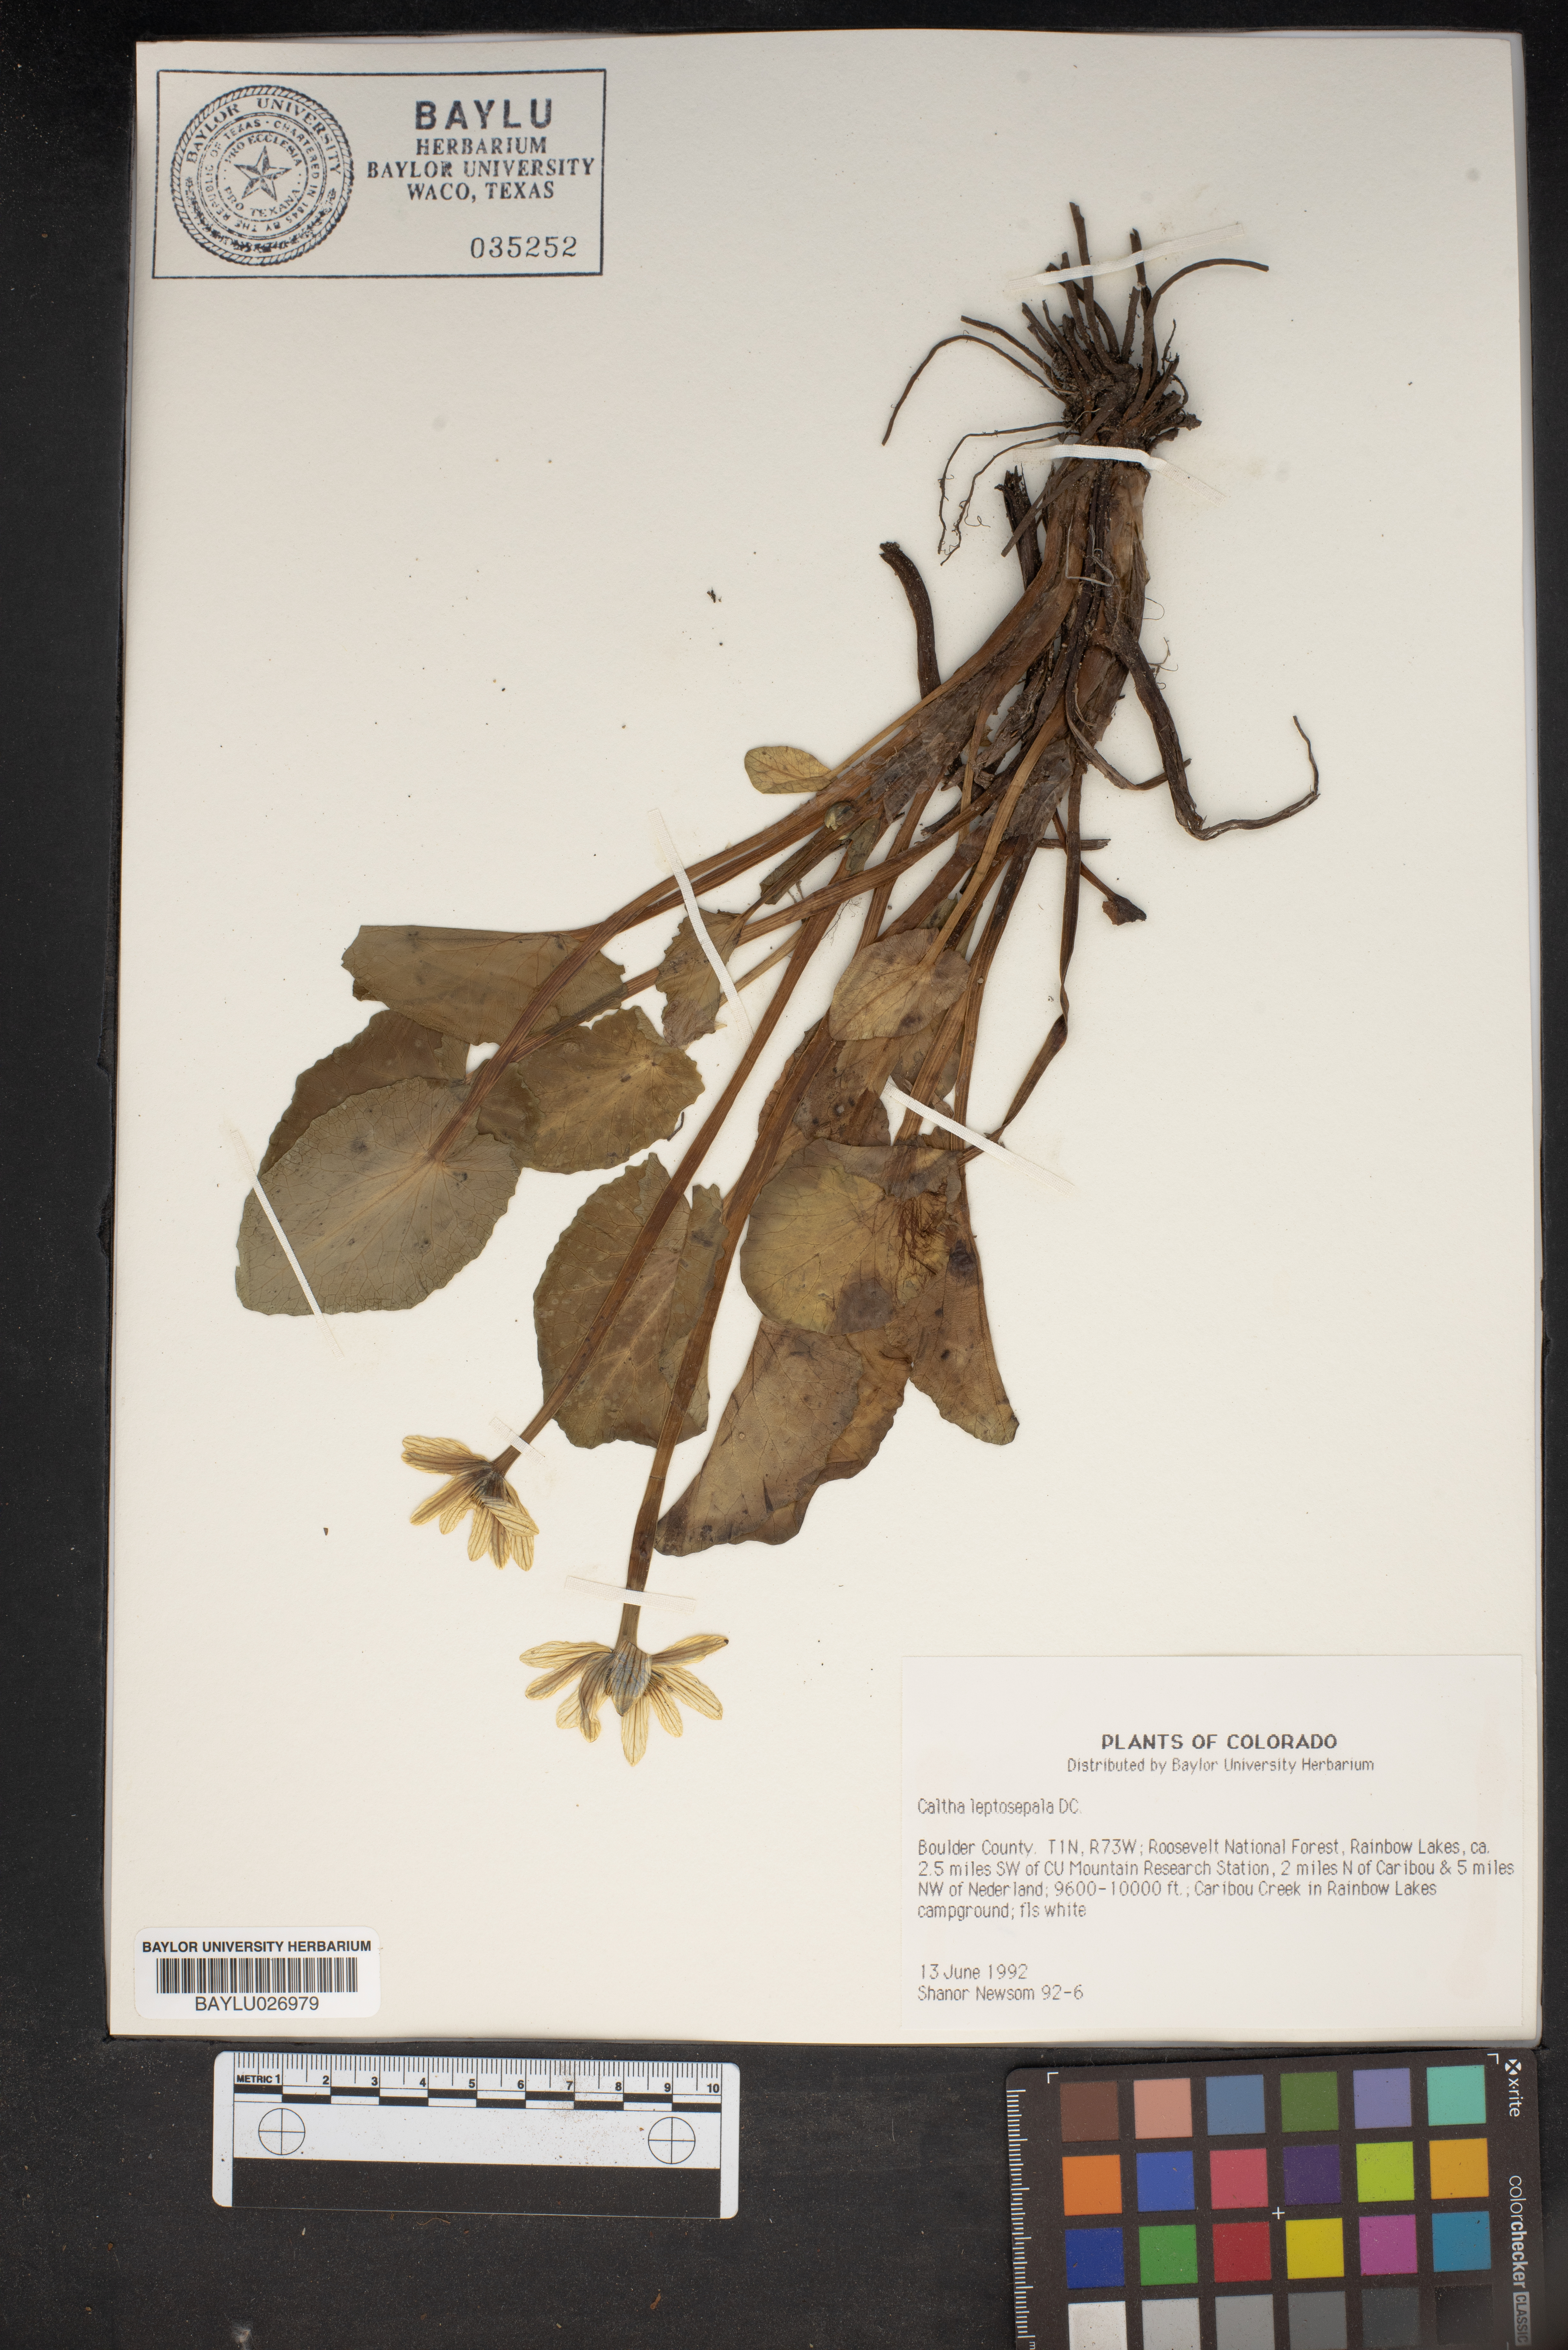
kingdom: Plantae
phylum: Tracheophyta
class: Magnoliopsida
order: Ranunculales
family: Ranunculaceae
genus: Caltha
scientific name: Caltha leptosepala
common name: Elkslip
